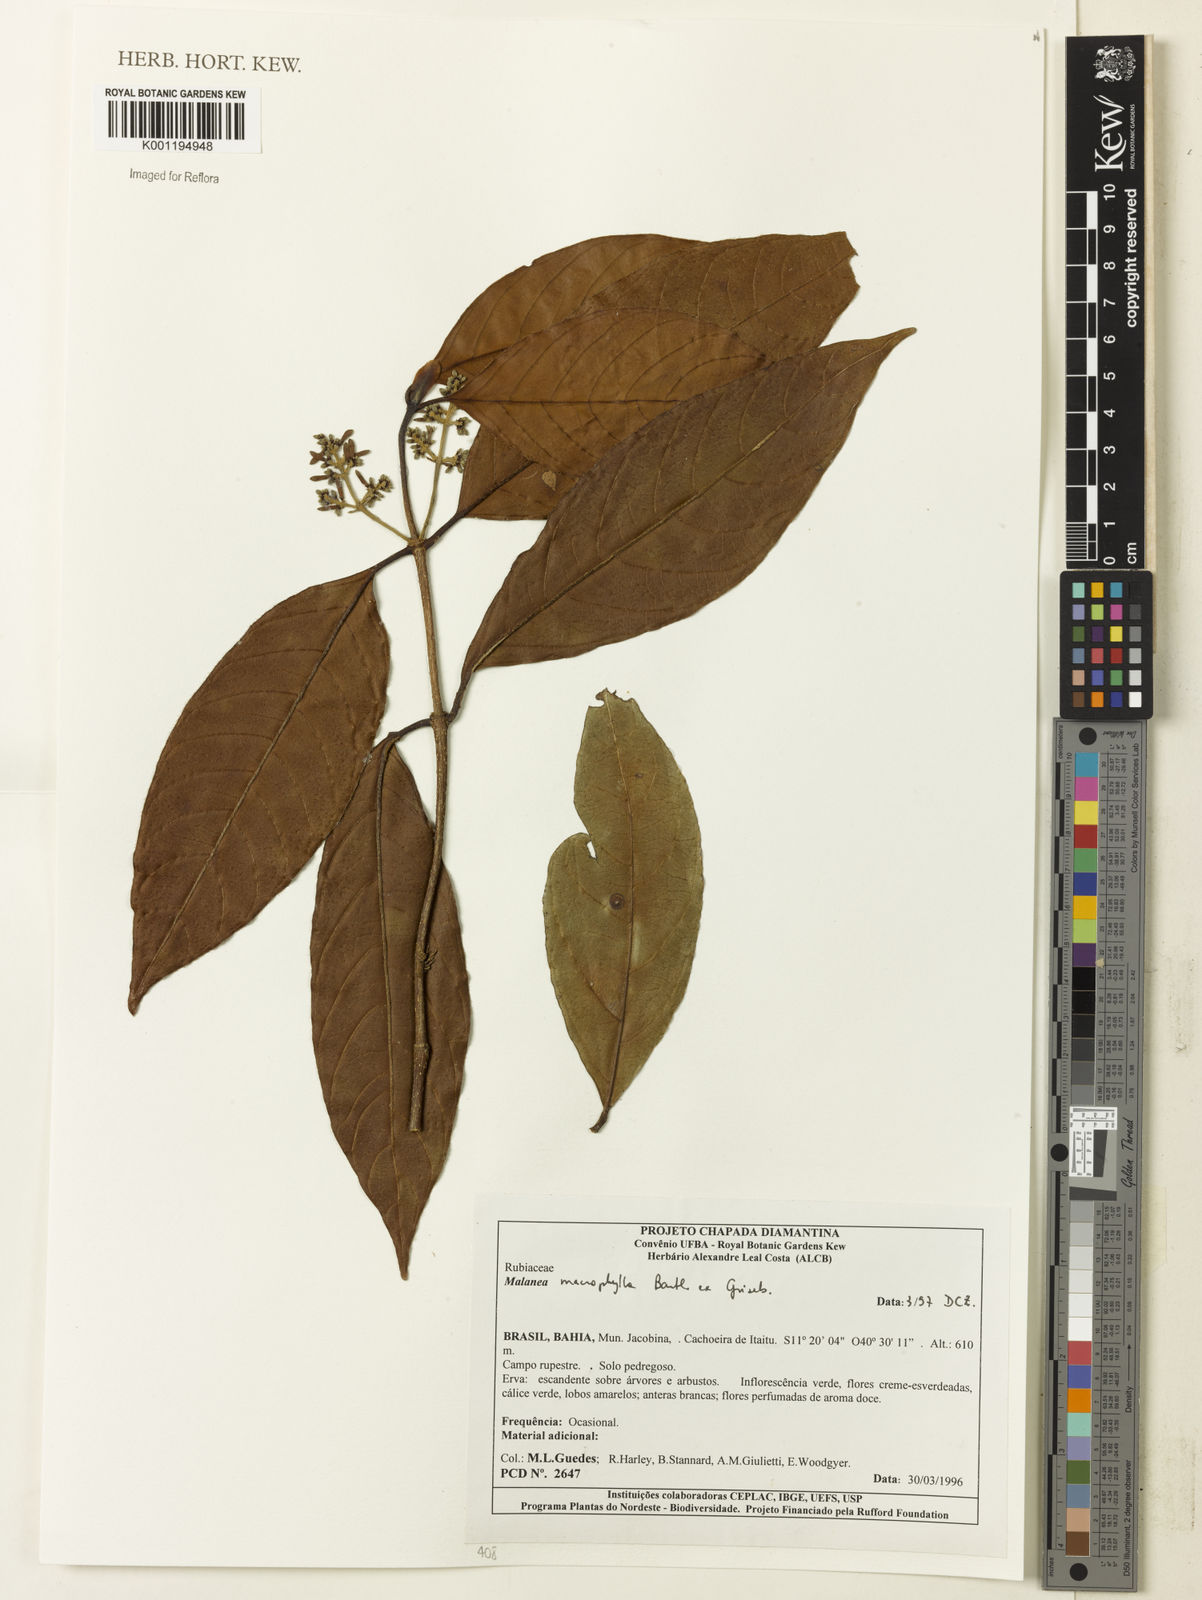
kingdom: Plantae
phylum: Tracheophyta
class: Magnoliopsida
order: Gentianales
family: Rubiaceae
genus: Malanea
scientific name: Malanea glabra
